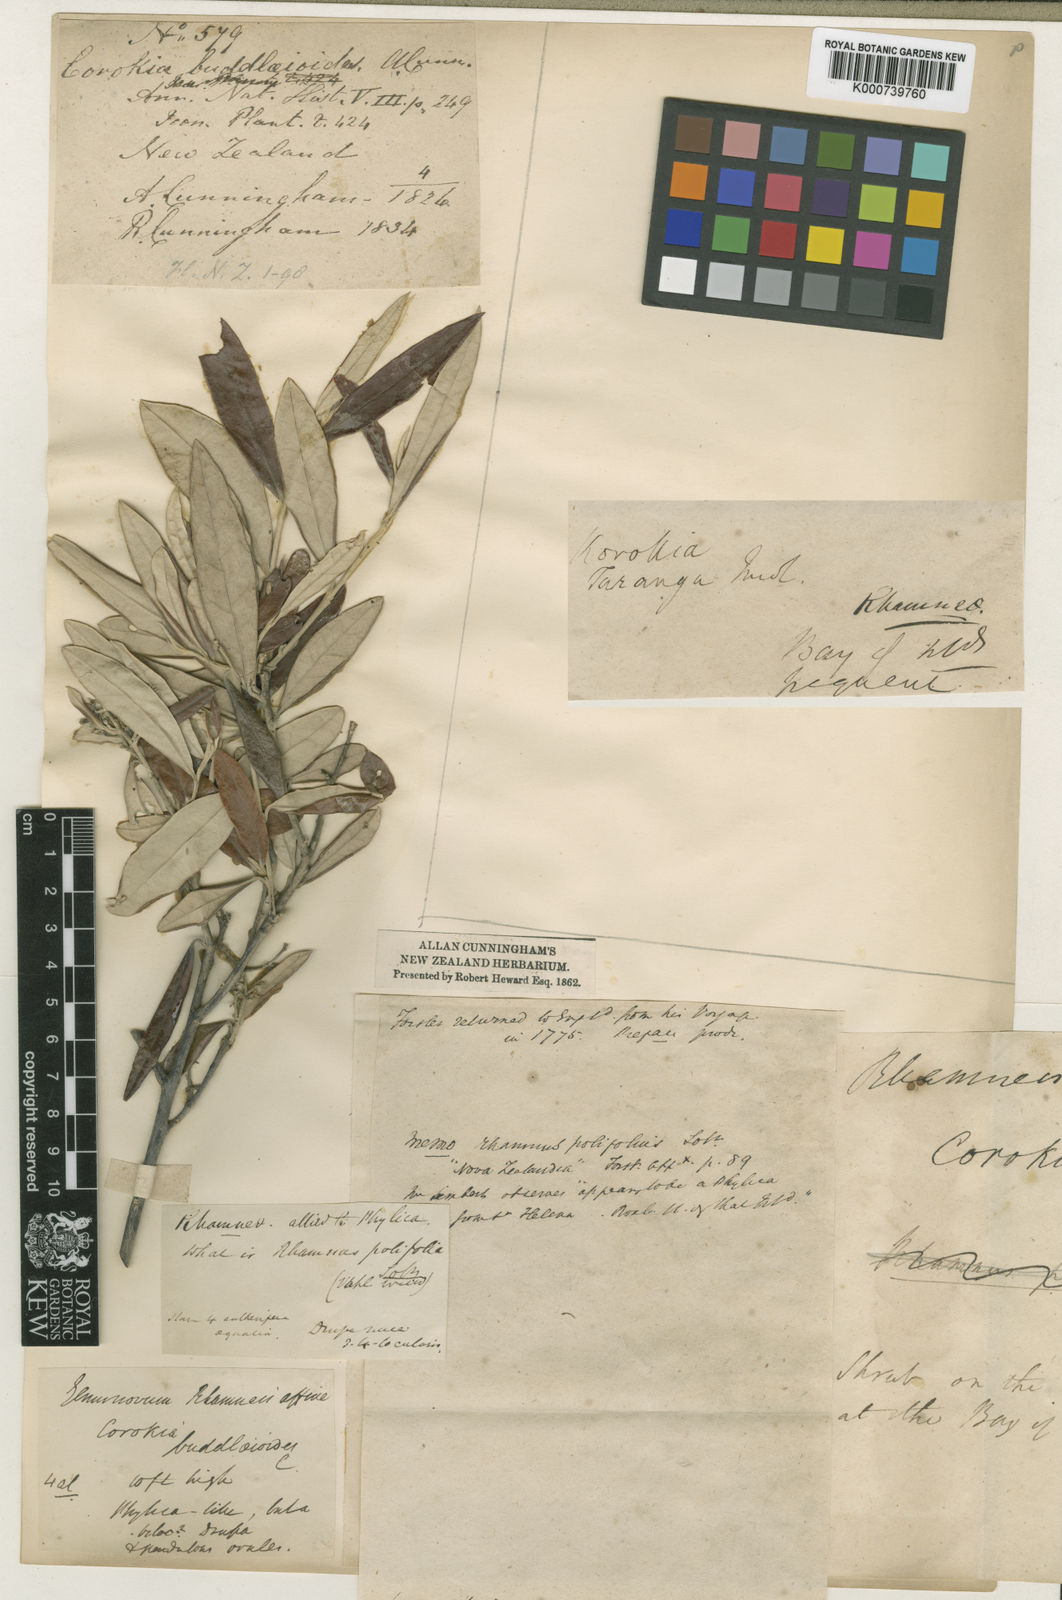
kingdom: Plantae
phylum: Tracheophyta
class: Magnoliopsida
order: Asterales
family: Argophyllaceae
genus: Corokia
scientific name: Corokia buddleioides
